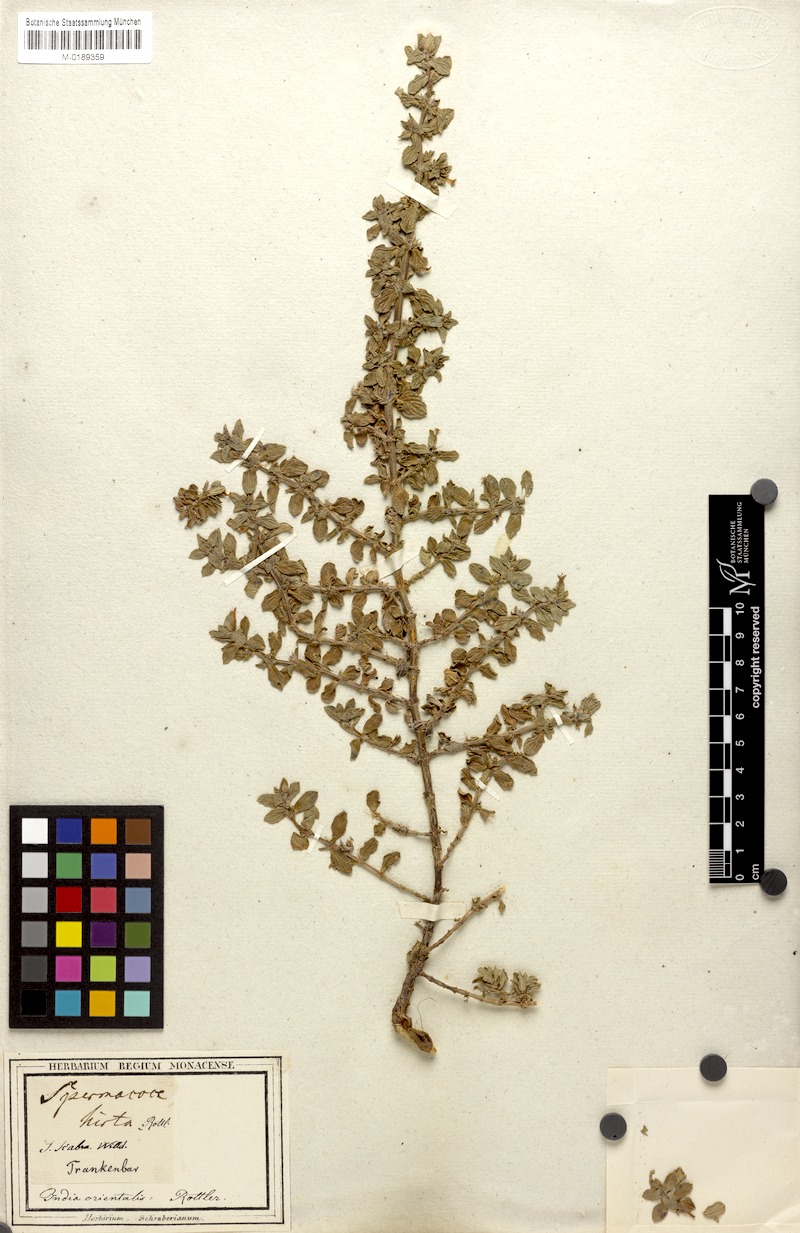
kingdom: Plantae
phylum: Tracheophyta
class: Magnoliopsida
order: Gentianales
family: Rubiaceae
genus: Spermacoce
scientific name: Spermacoce articularis
